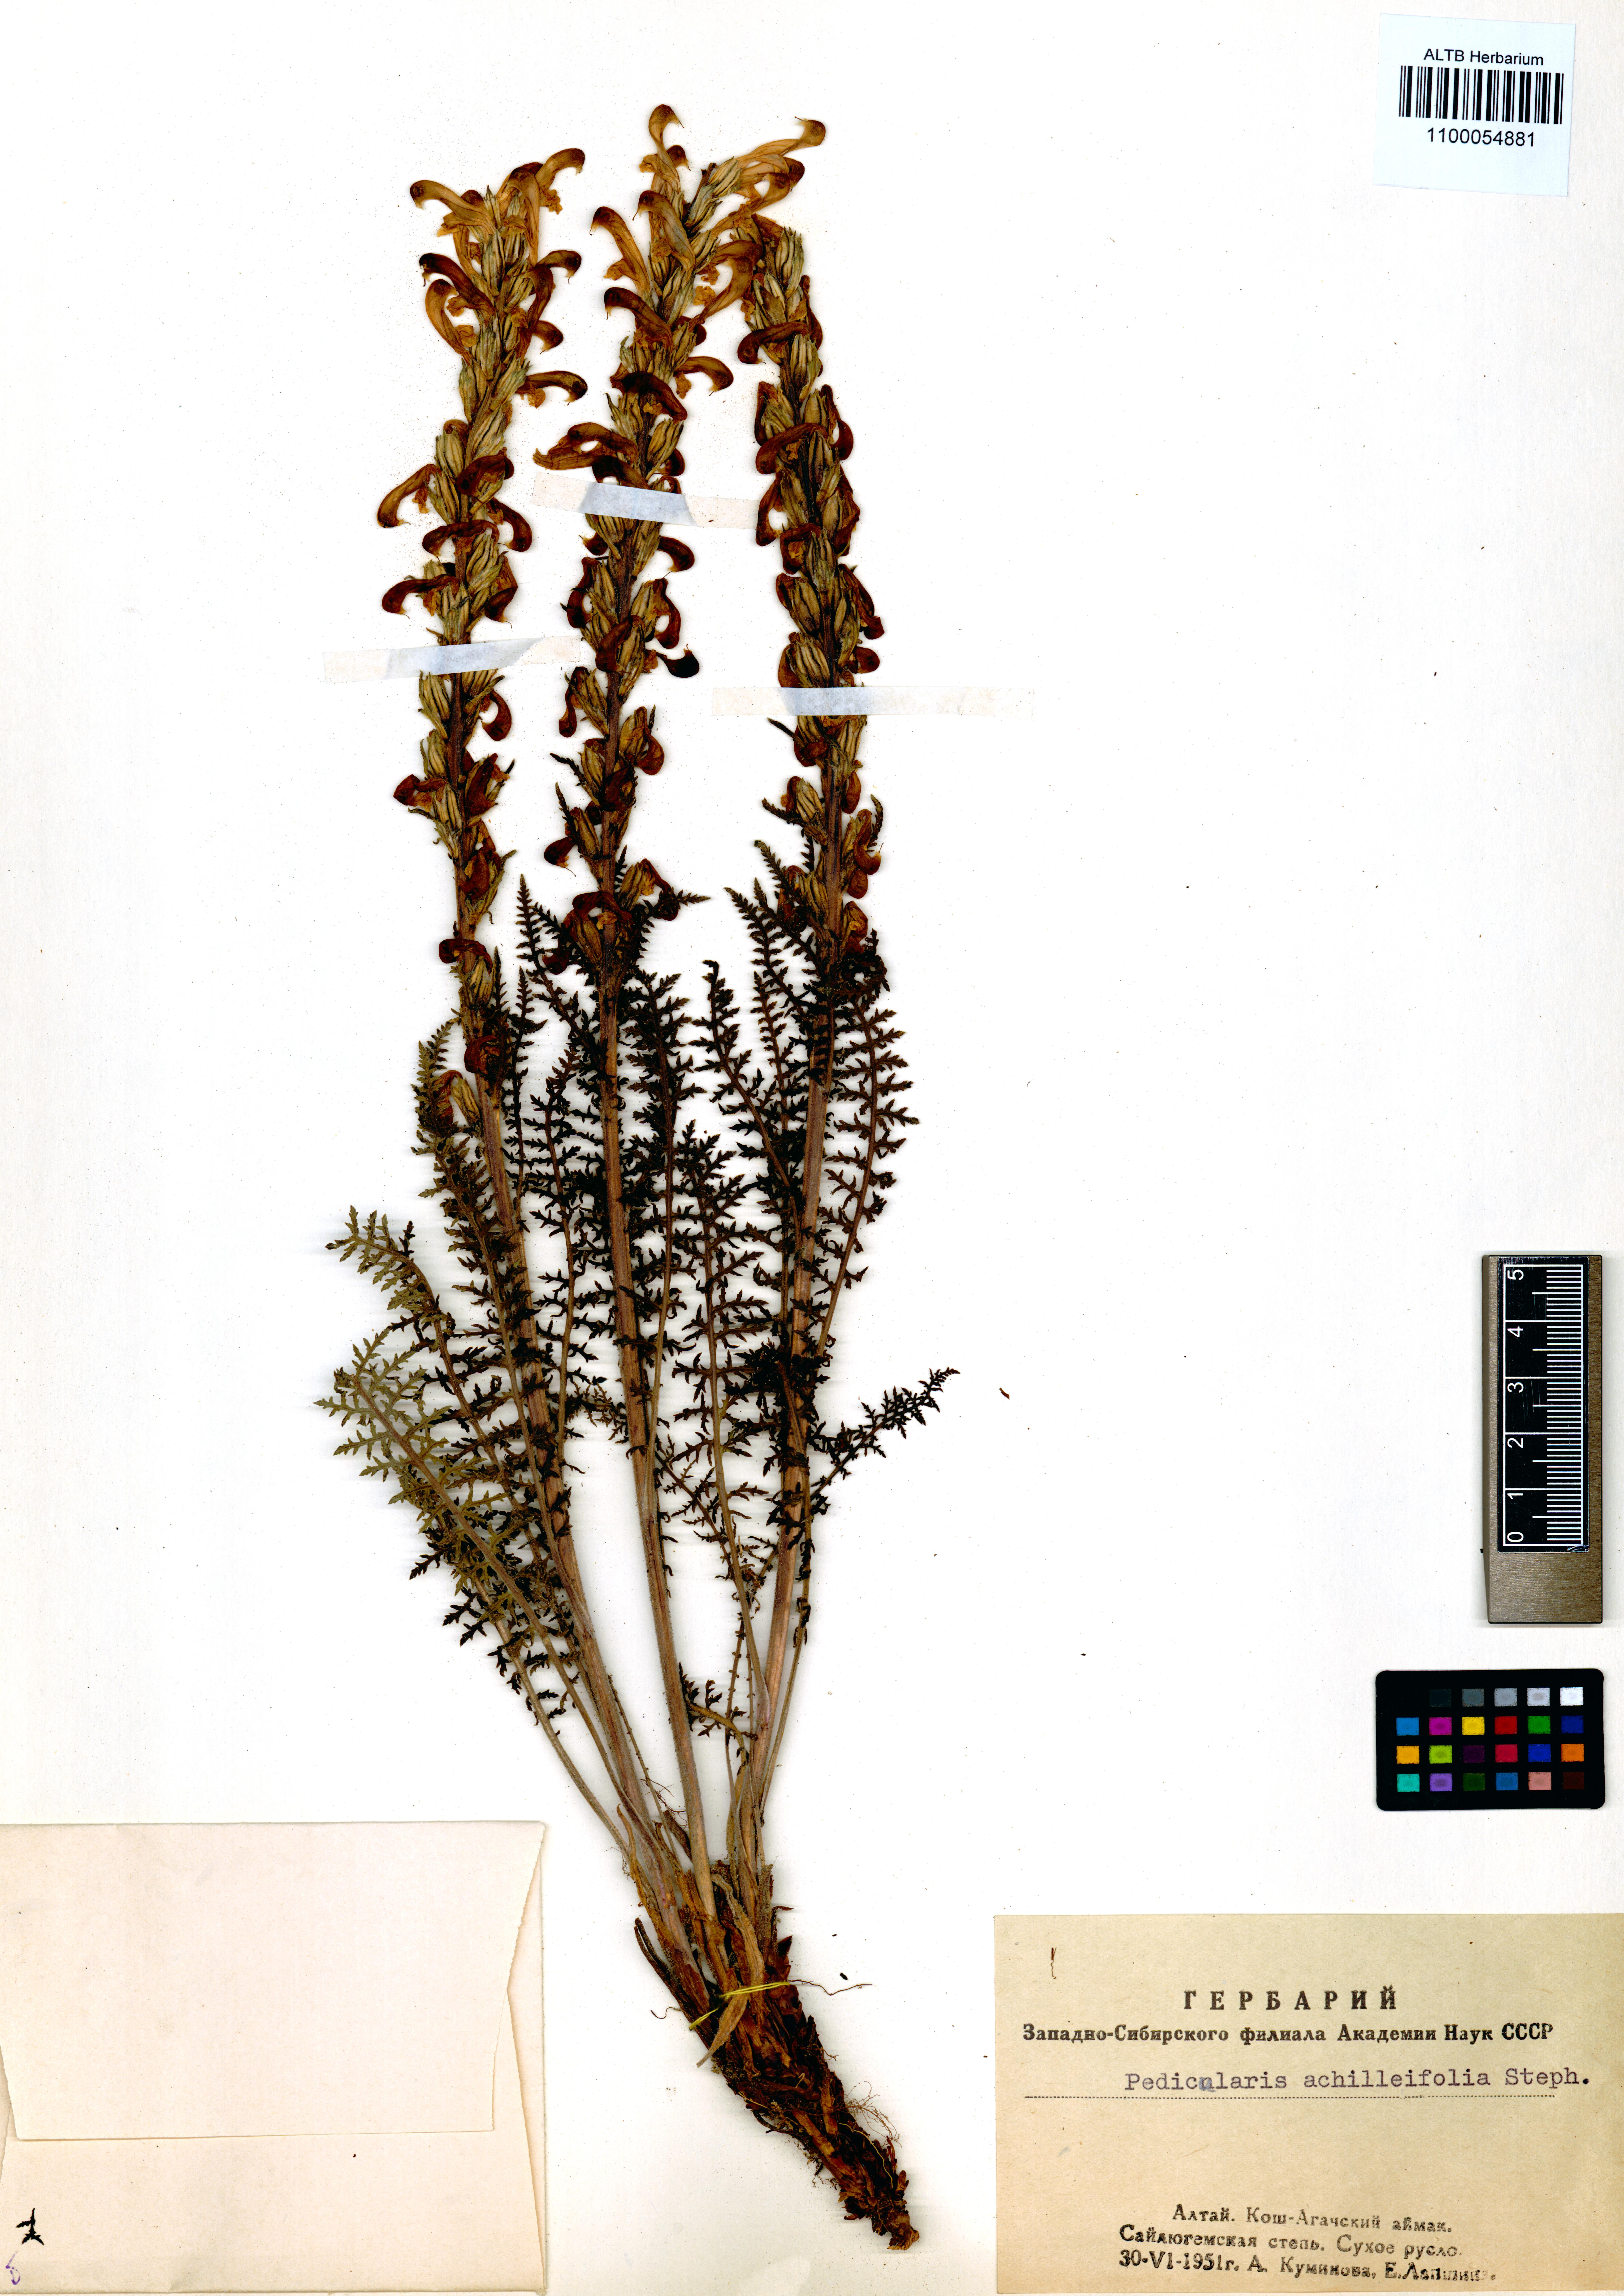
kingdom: Plantae
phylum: Tracheophyta
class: Magnoliopsida
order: Lamiales
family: Orobanchaceae
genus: Pedicularis
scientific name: Pedicularis achilleifolia
